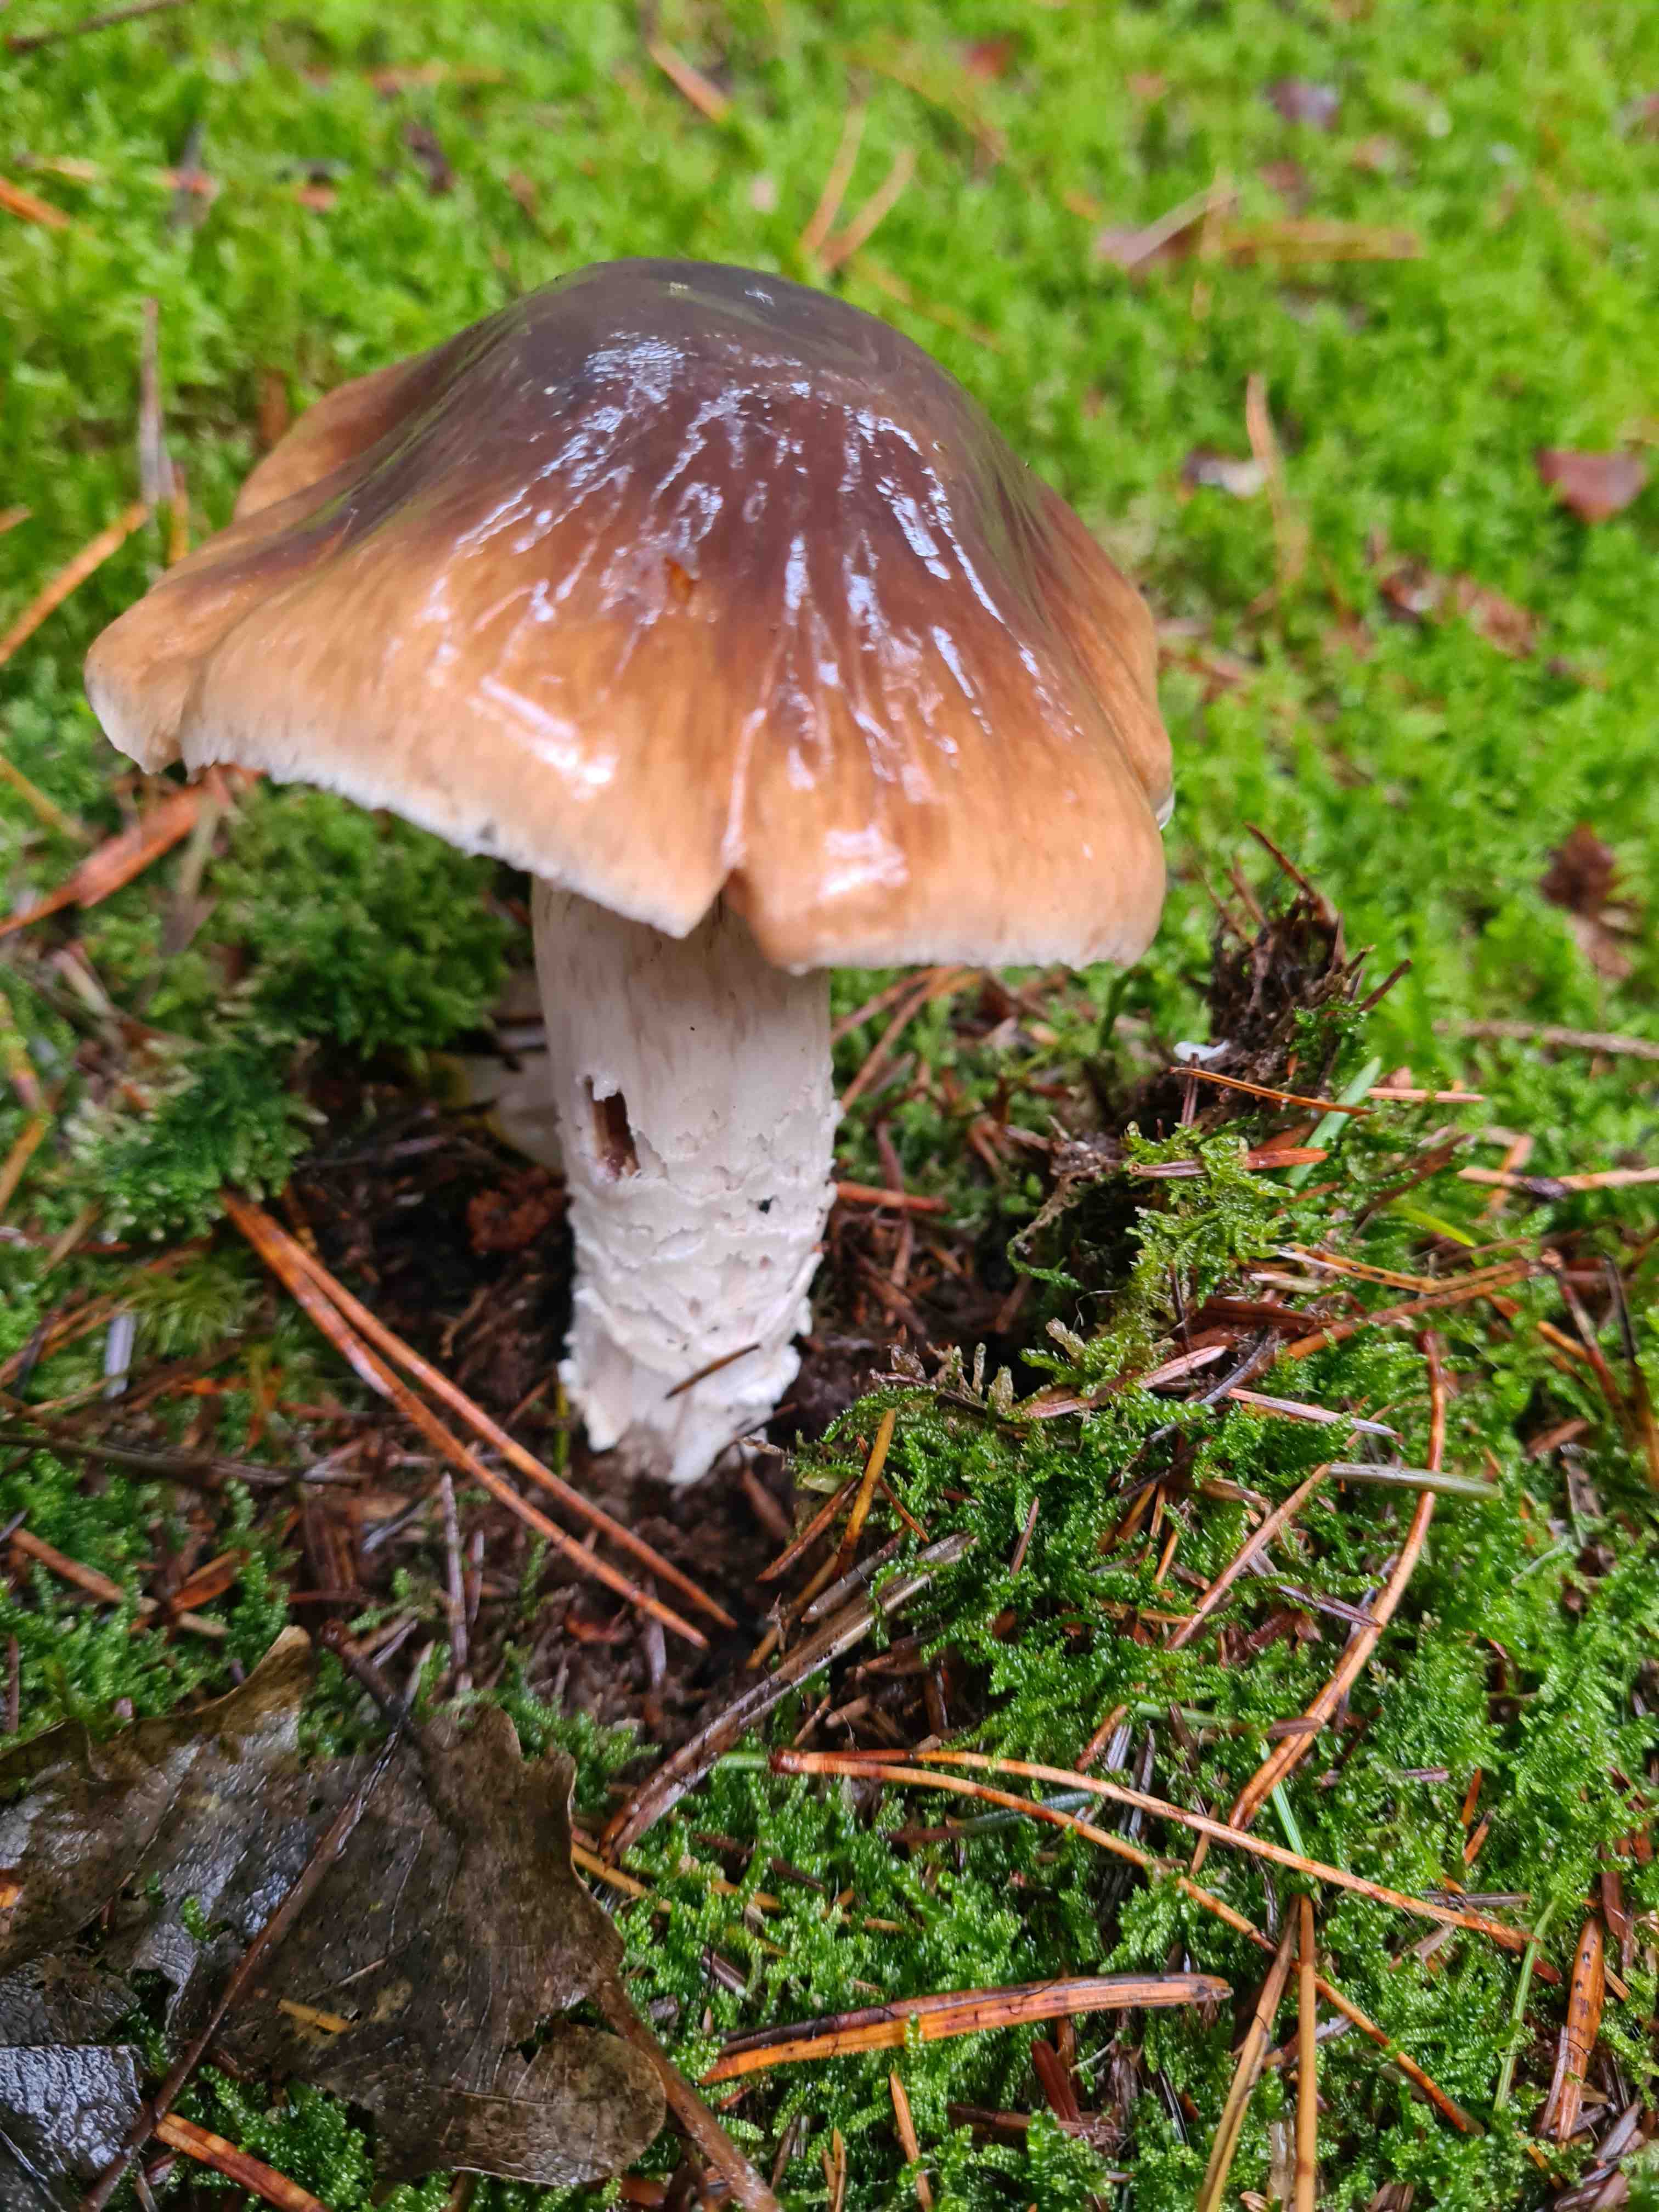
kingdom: Fungi
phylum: Basidiomycota
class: Agaricomycetes
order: Agaricales
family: Cortinariaceae
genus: Cortinarius
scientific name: Cortinarius
